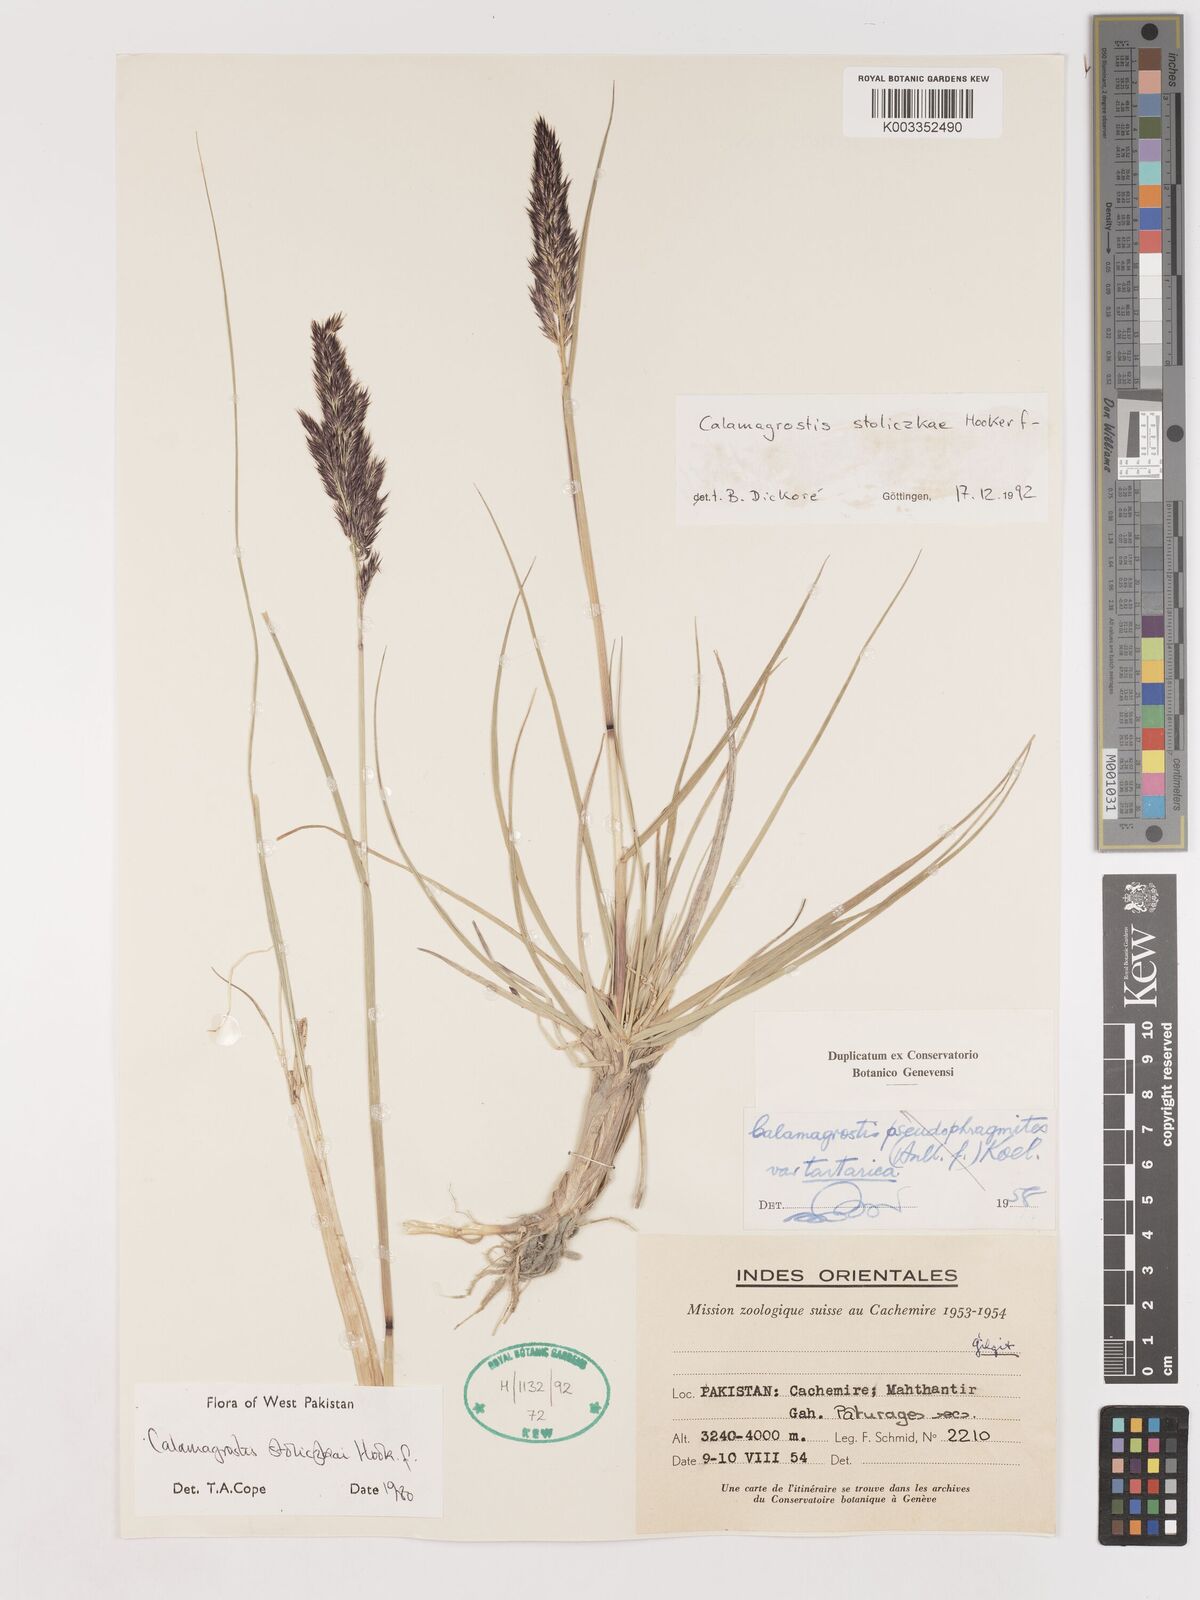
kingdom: Plantae
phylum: Tracheophyta
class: Liliopsida
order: Poales
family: Poaceae
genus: Calamagrostis
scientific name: Calamagrostis stolizkae
